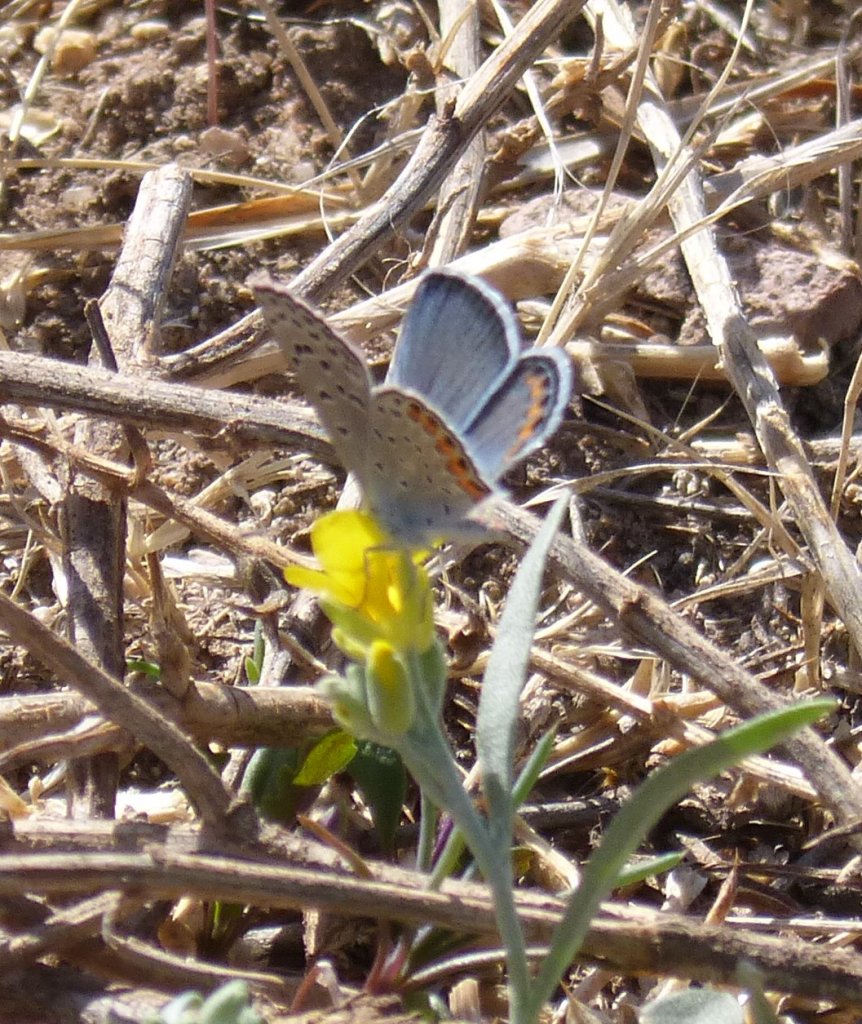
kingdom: Animalia
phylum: Arthropoda
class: Insecta
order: Lepidoptera
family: Lycaenidae
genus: Plebejus
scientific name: Plebejus acmon
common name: Acmon Blue
